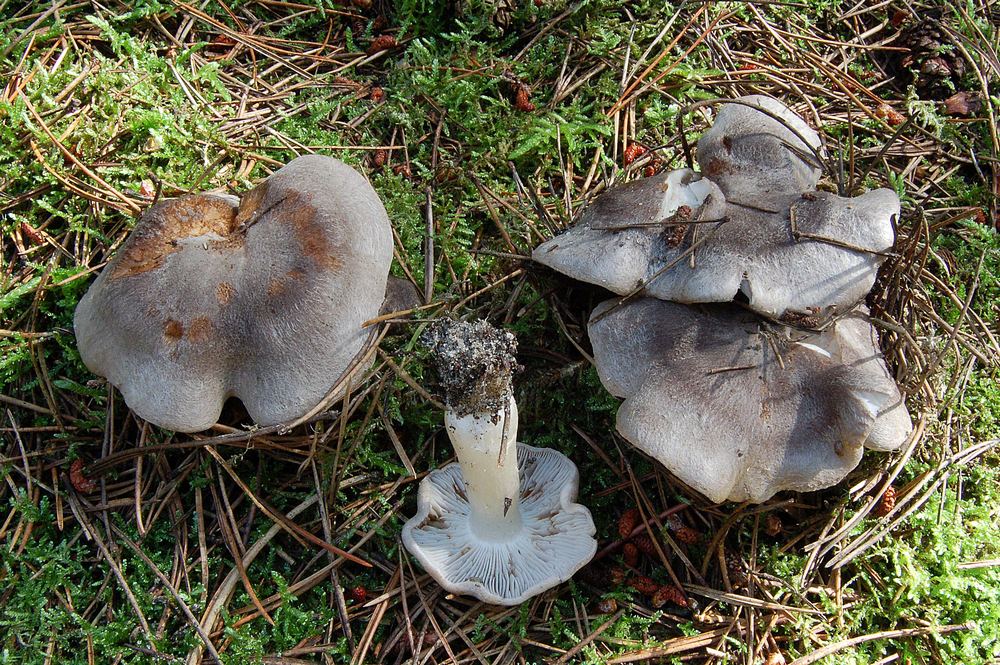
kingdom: Fungi
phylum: Basidiomycota
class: Agaricomycetes
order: Agaricales
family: Tricholomataceae
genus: Tricholoma
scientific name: Tricholoma terreum
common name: jordfarvet ridderhat
